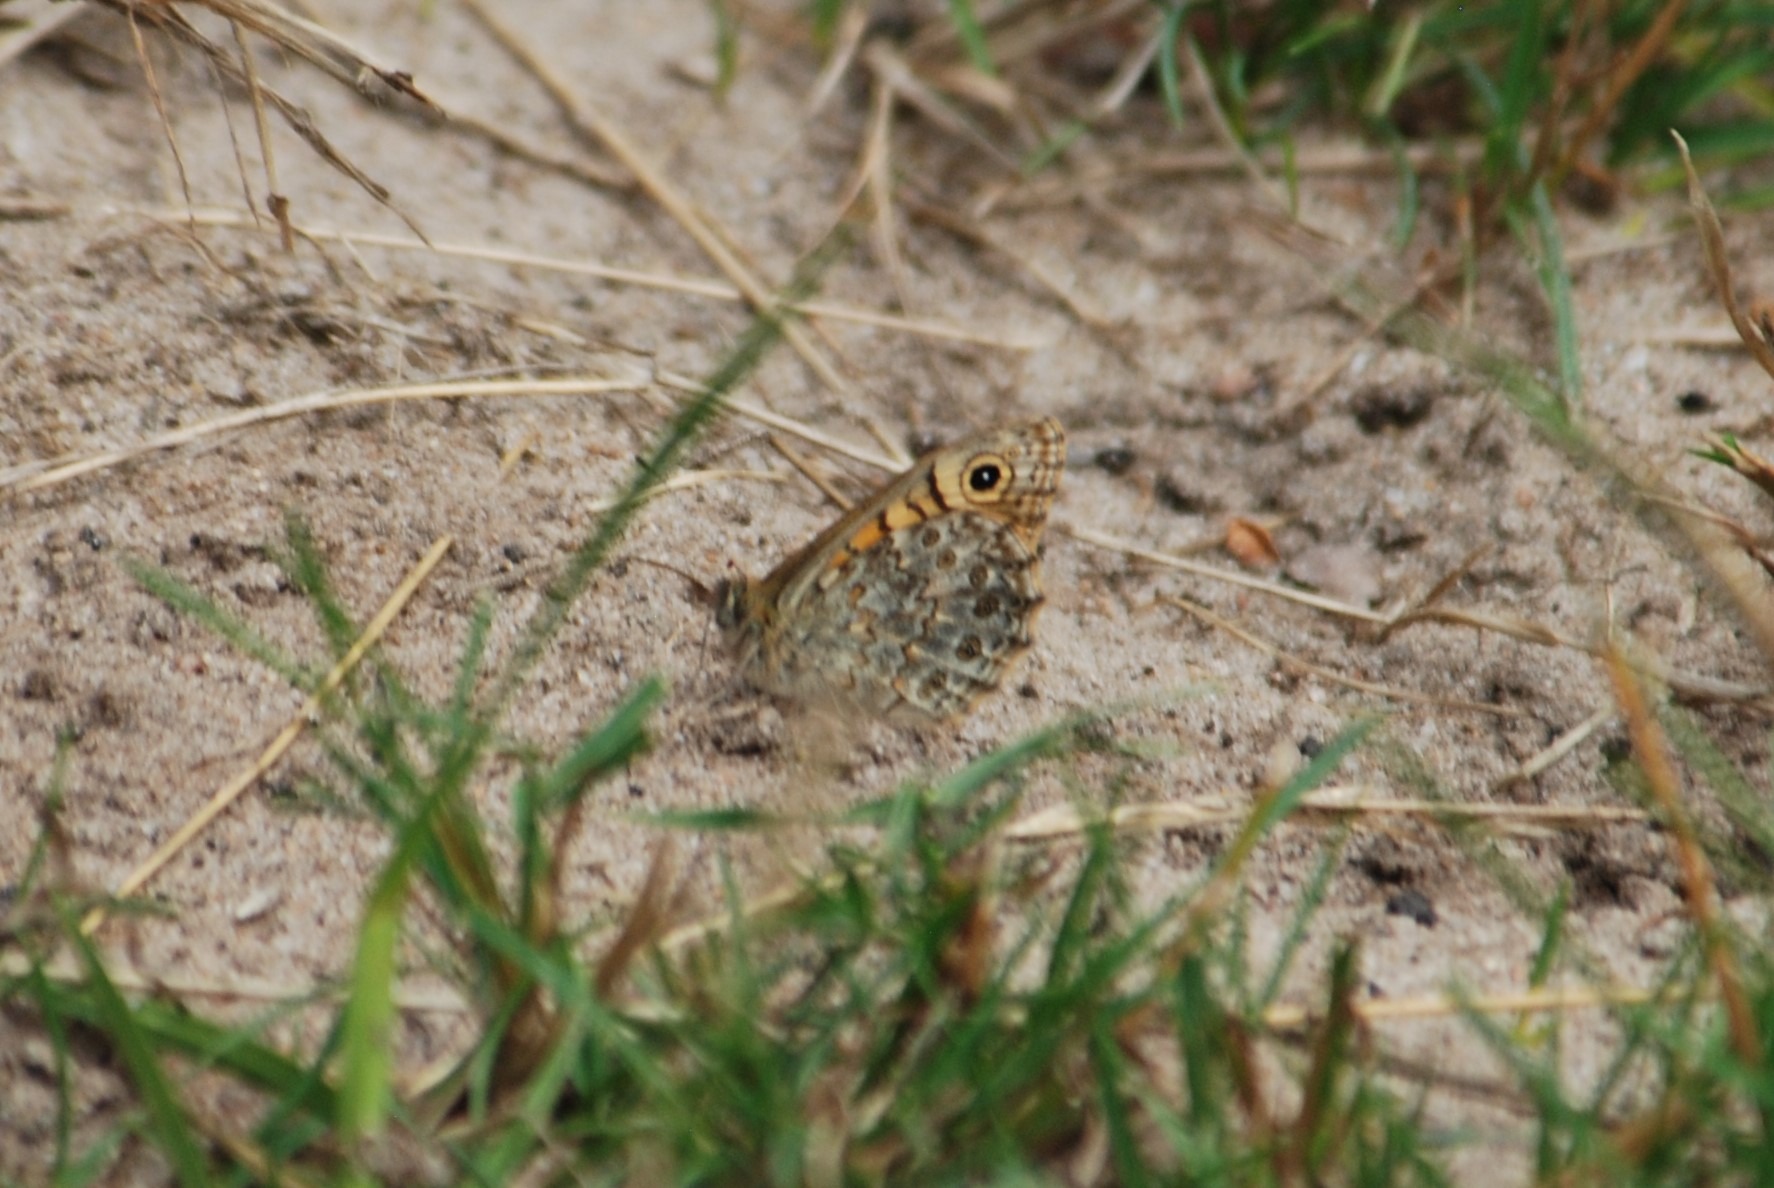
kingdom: Animalia
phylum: Arthropoda
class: Insecta
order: Lepidoptera
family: Nymphalidae
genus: Pararge
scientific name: Pararge Lasiommata megera
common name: Vejrandøje
